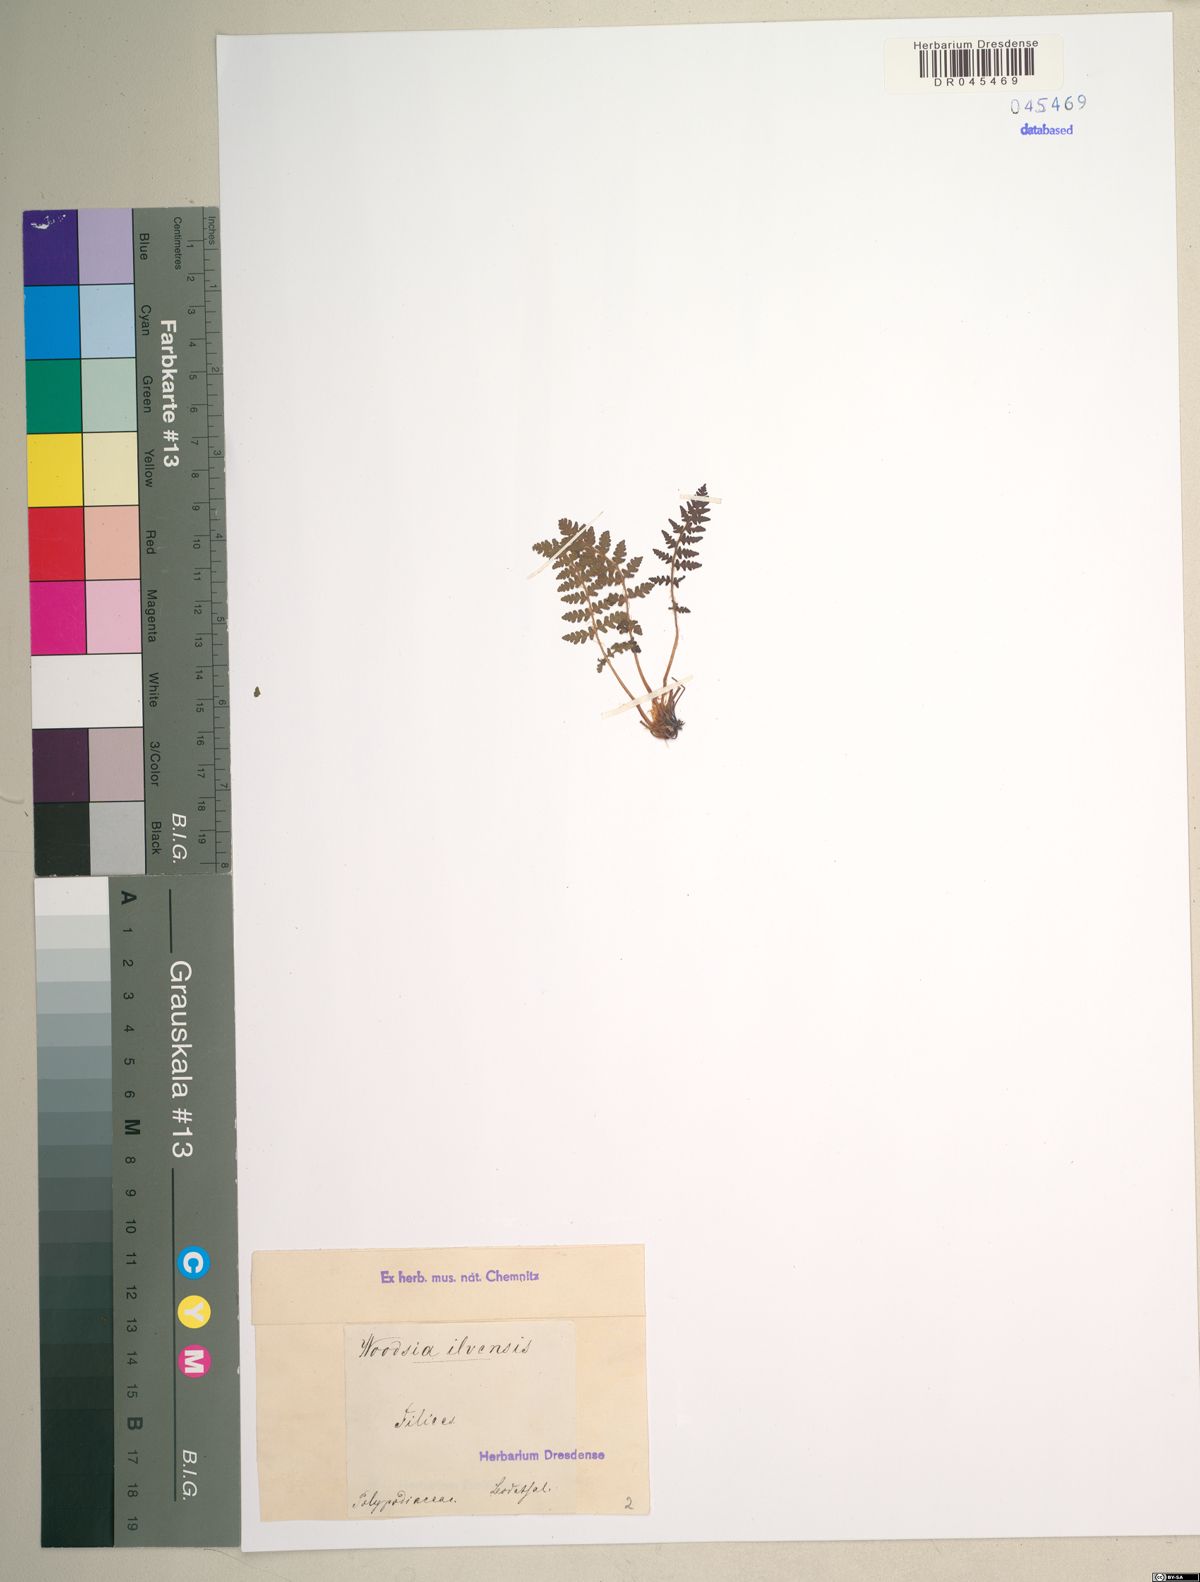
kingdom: Plantae
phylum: Tracheophyta
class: Polypodiopsida
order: Polypodiales
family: Woodsiaceae
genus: Woodsia
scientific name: Woodsia ilvensis
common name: Fragrant woodsia
